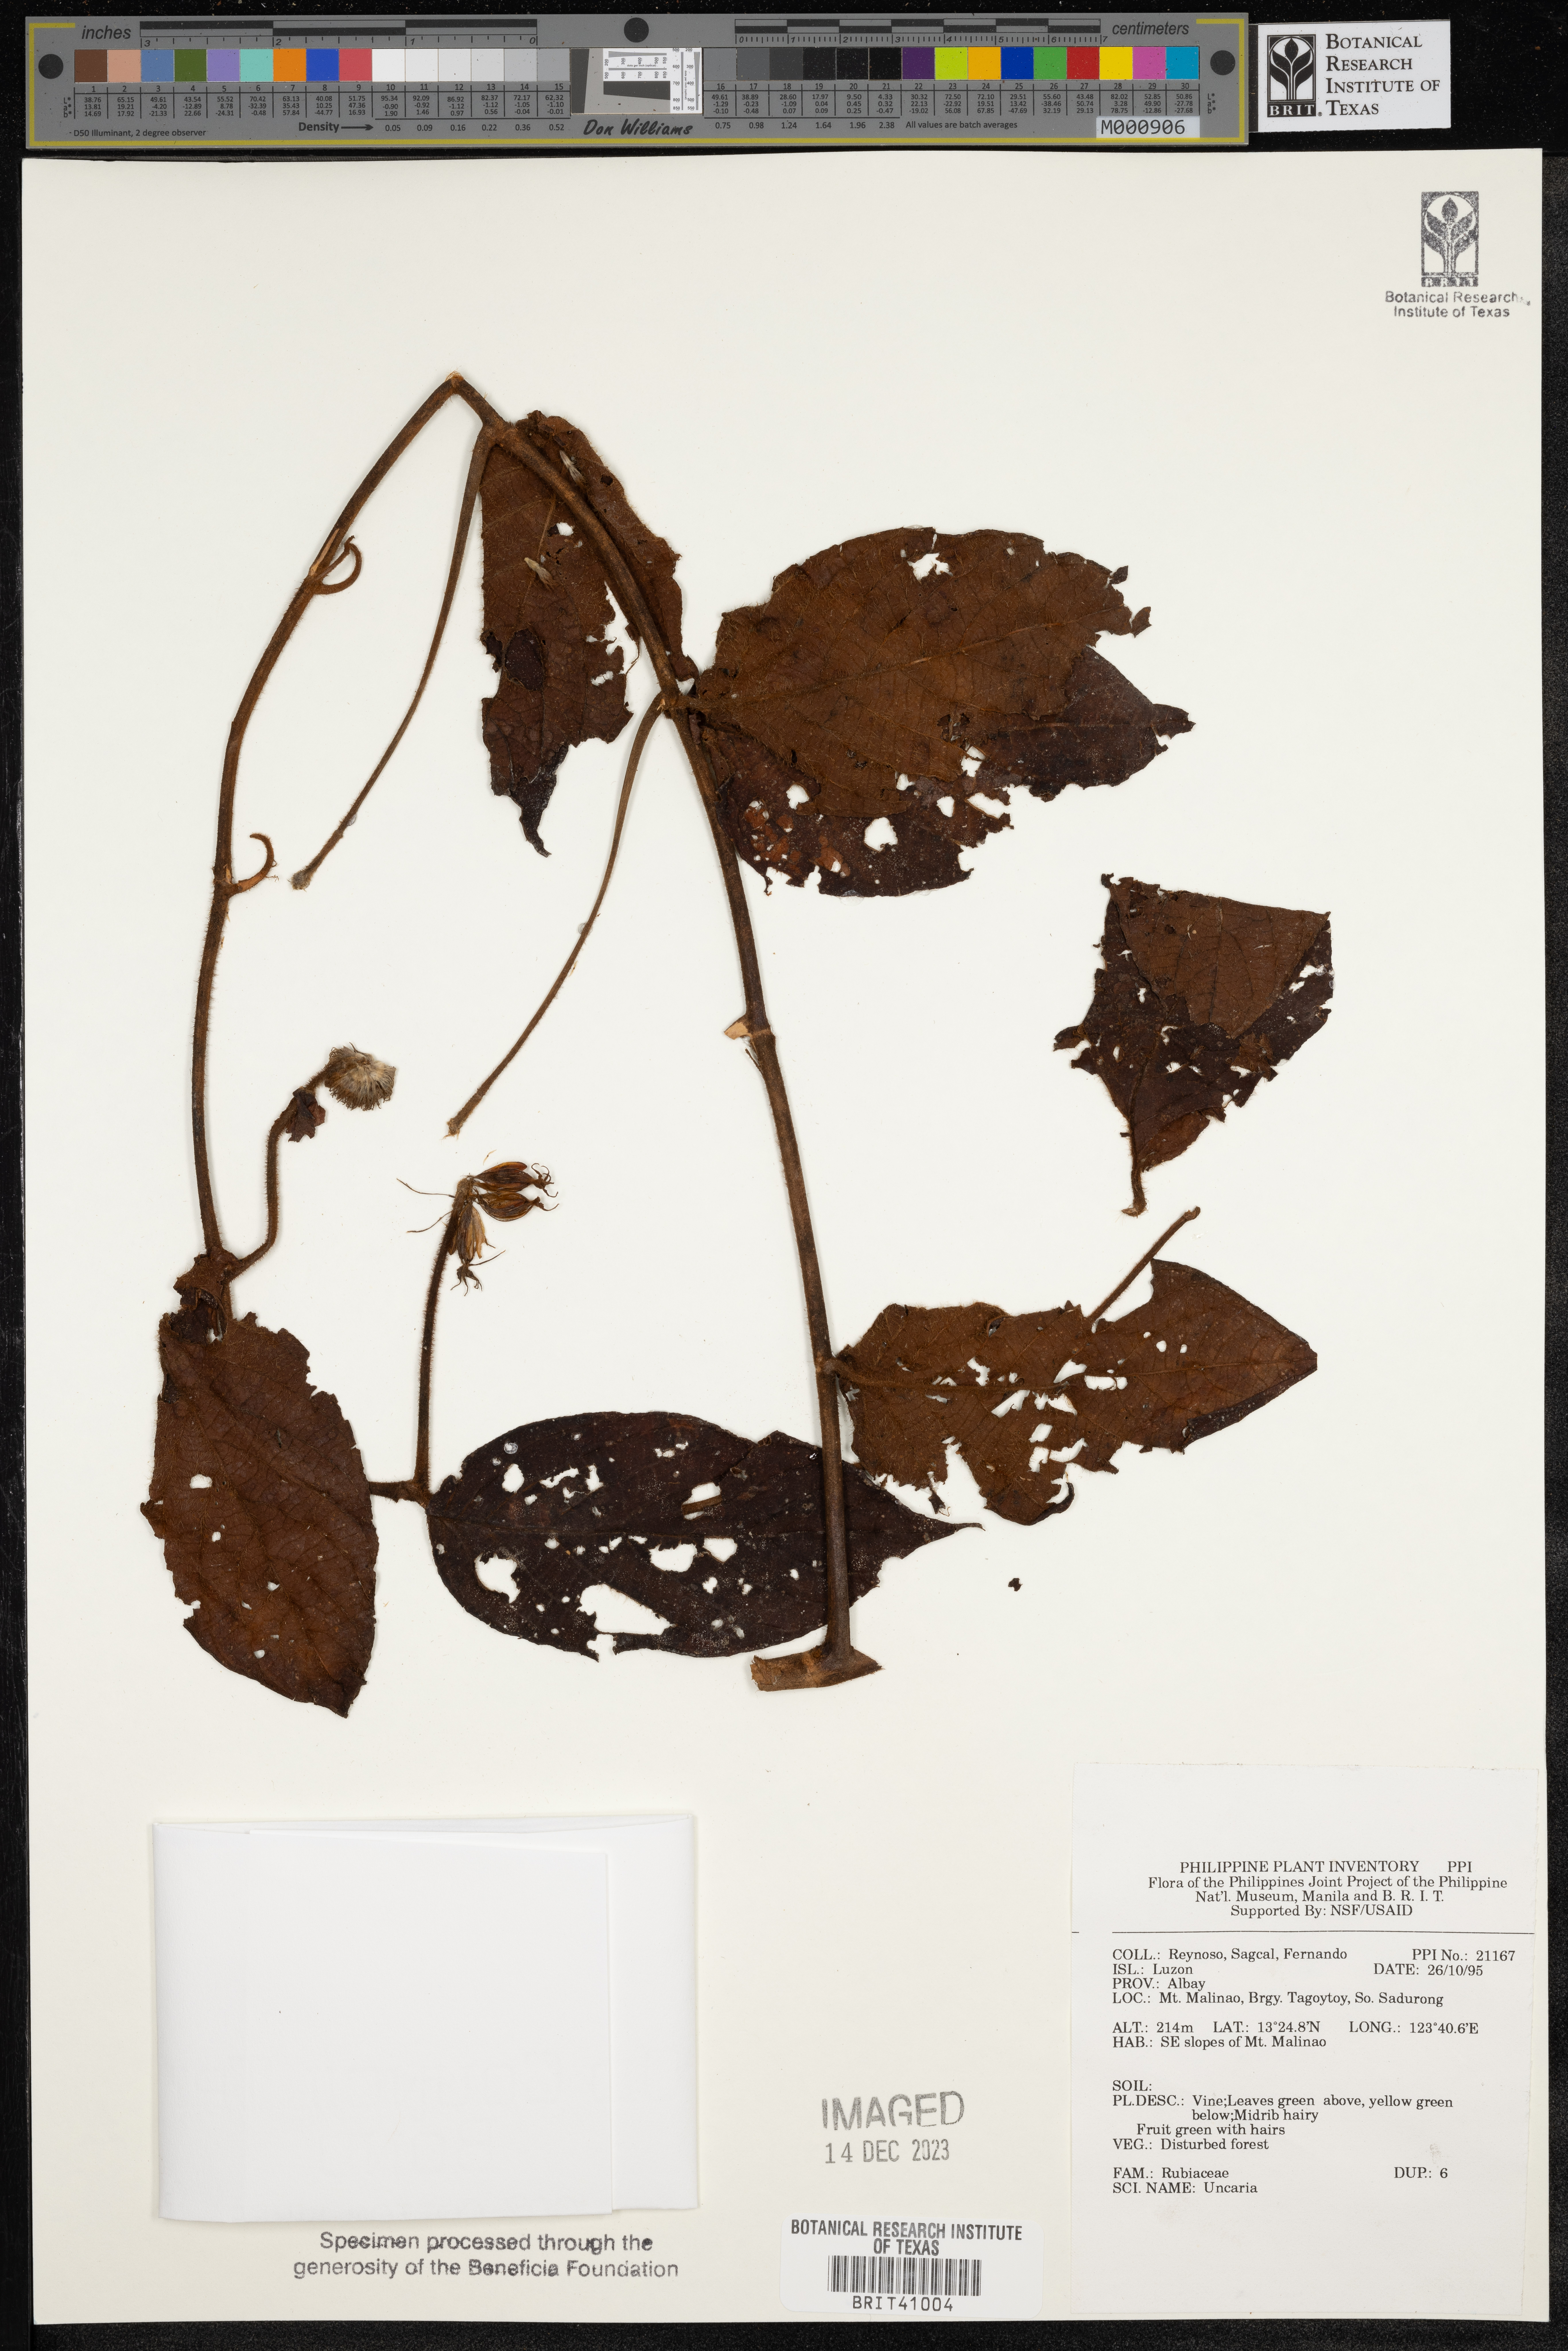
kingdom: Plantae
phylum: Tracheophyta
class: Magnoliopsida
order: Gentianales
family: Rubiaceae
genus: Uncaria
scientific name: Uncaria
